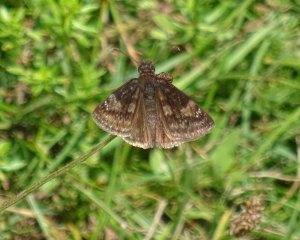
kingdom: Animalia
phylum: Arthropoda
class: Insecta
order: Lepidoptera
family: Hesperiidae
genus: Gesta
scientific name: Gesta
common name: Wild Indigo Duskywing
